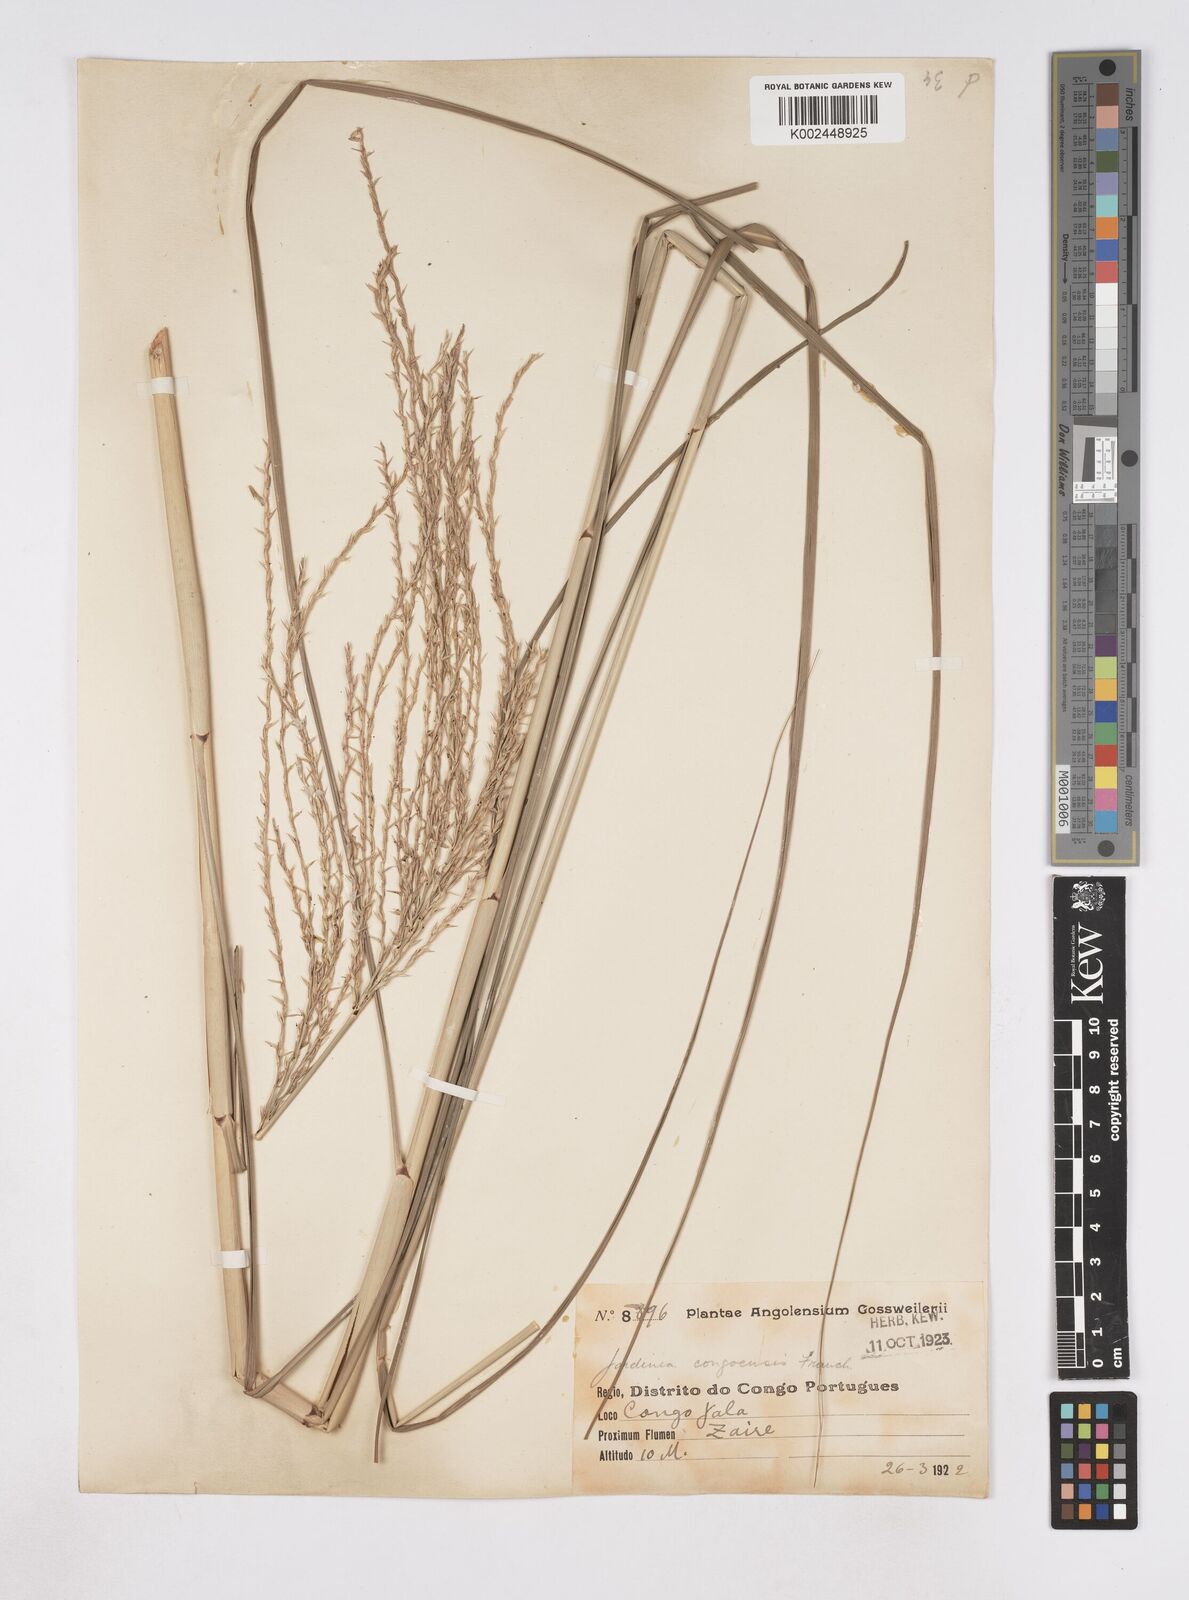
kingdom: Plantae
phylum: Tracheophyta
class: Liliopsida
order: Poales
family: Poaceae
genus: Phacelurus
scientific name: Phacelurus gabonensis
